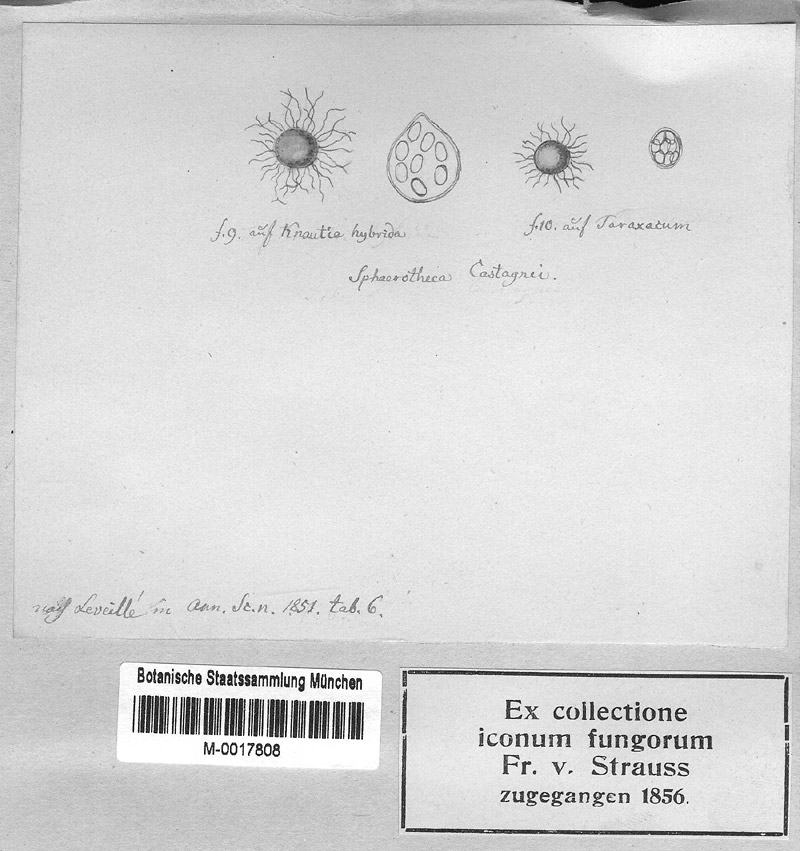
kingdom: Plantae
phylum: Tracheophyta
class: Magnoliopsida
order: Asterales
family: Asteraceae
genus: Taraxacum
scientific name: Taraxacum
